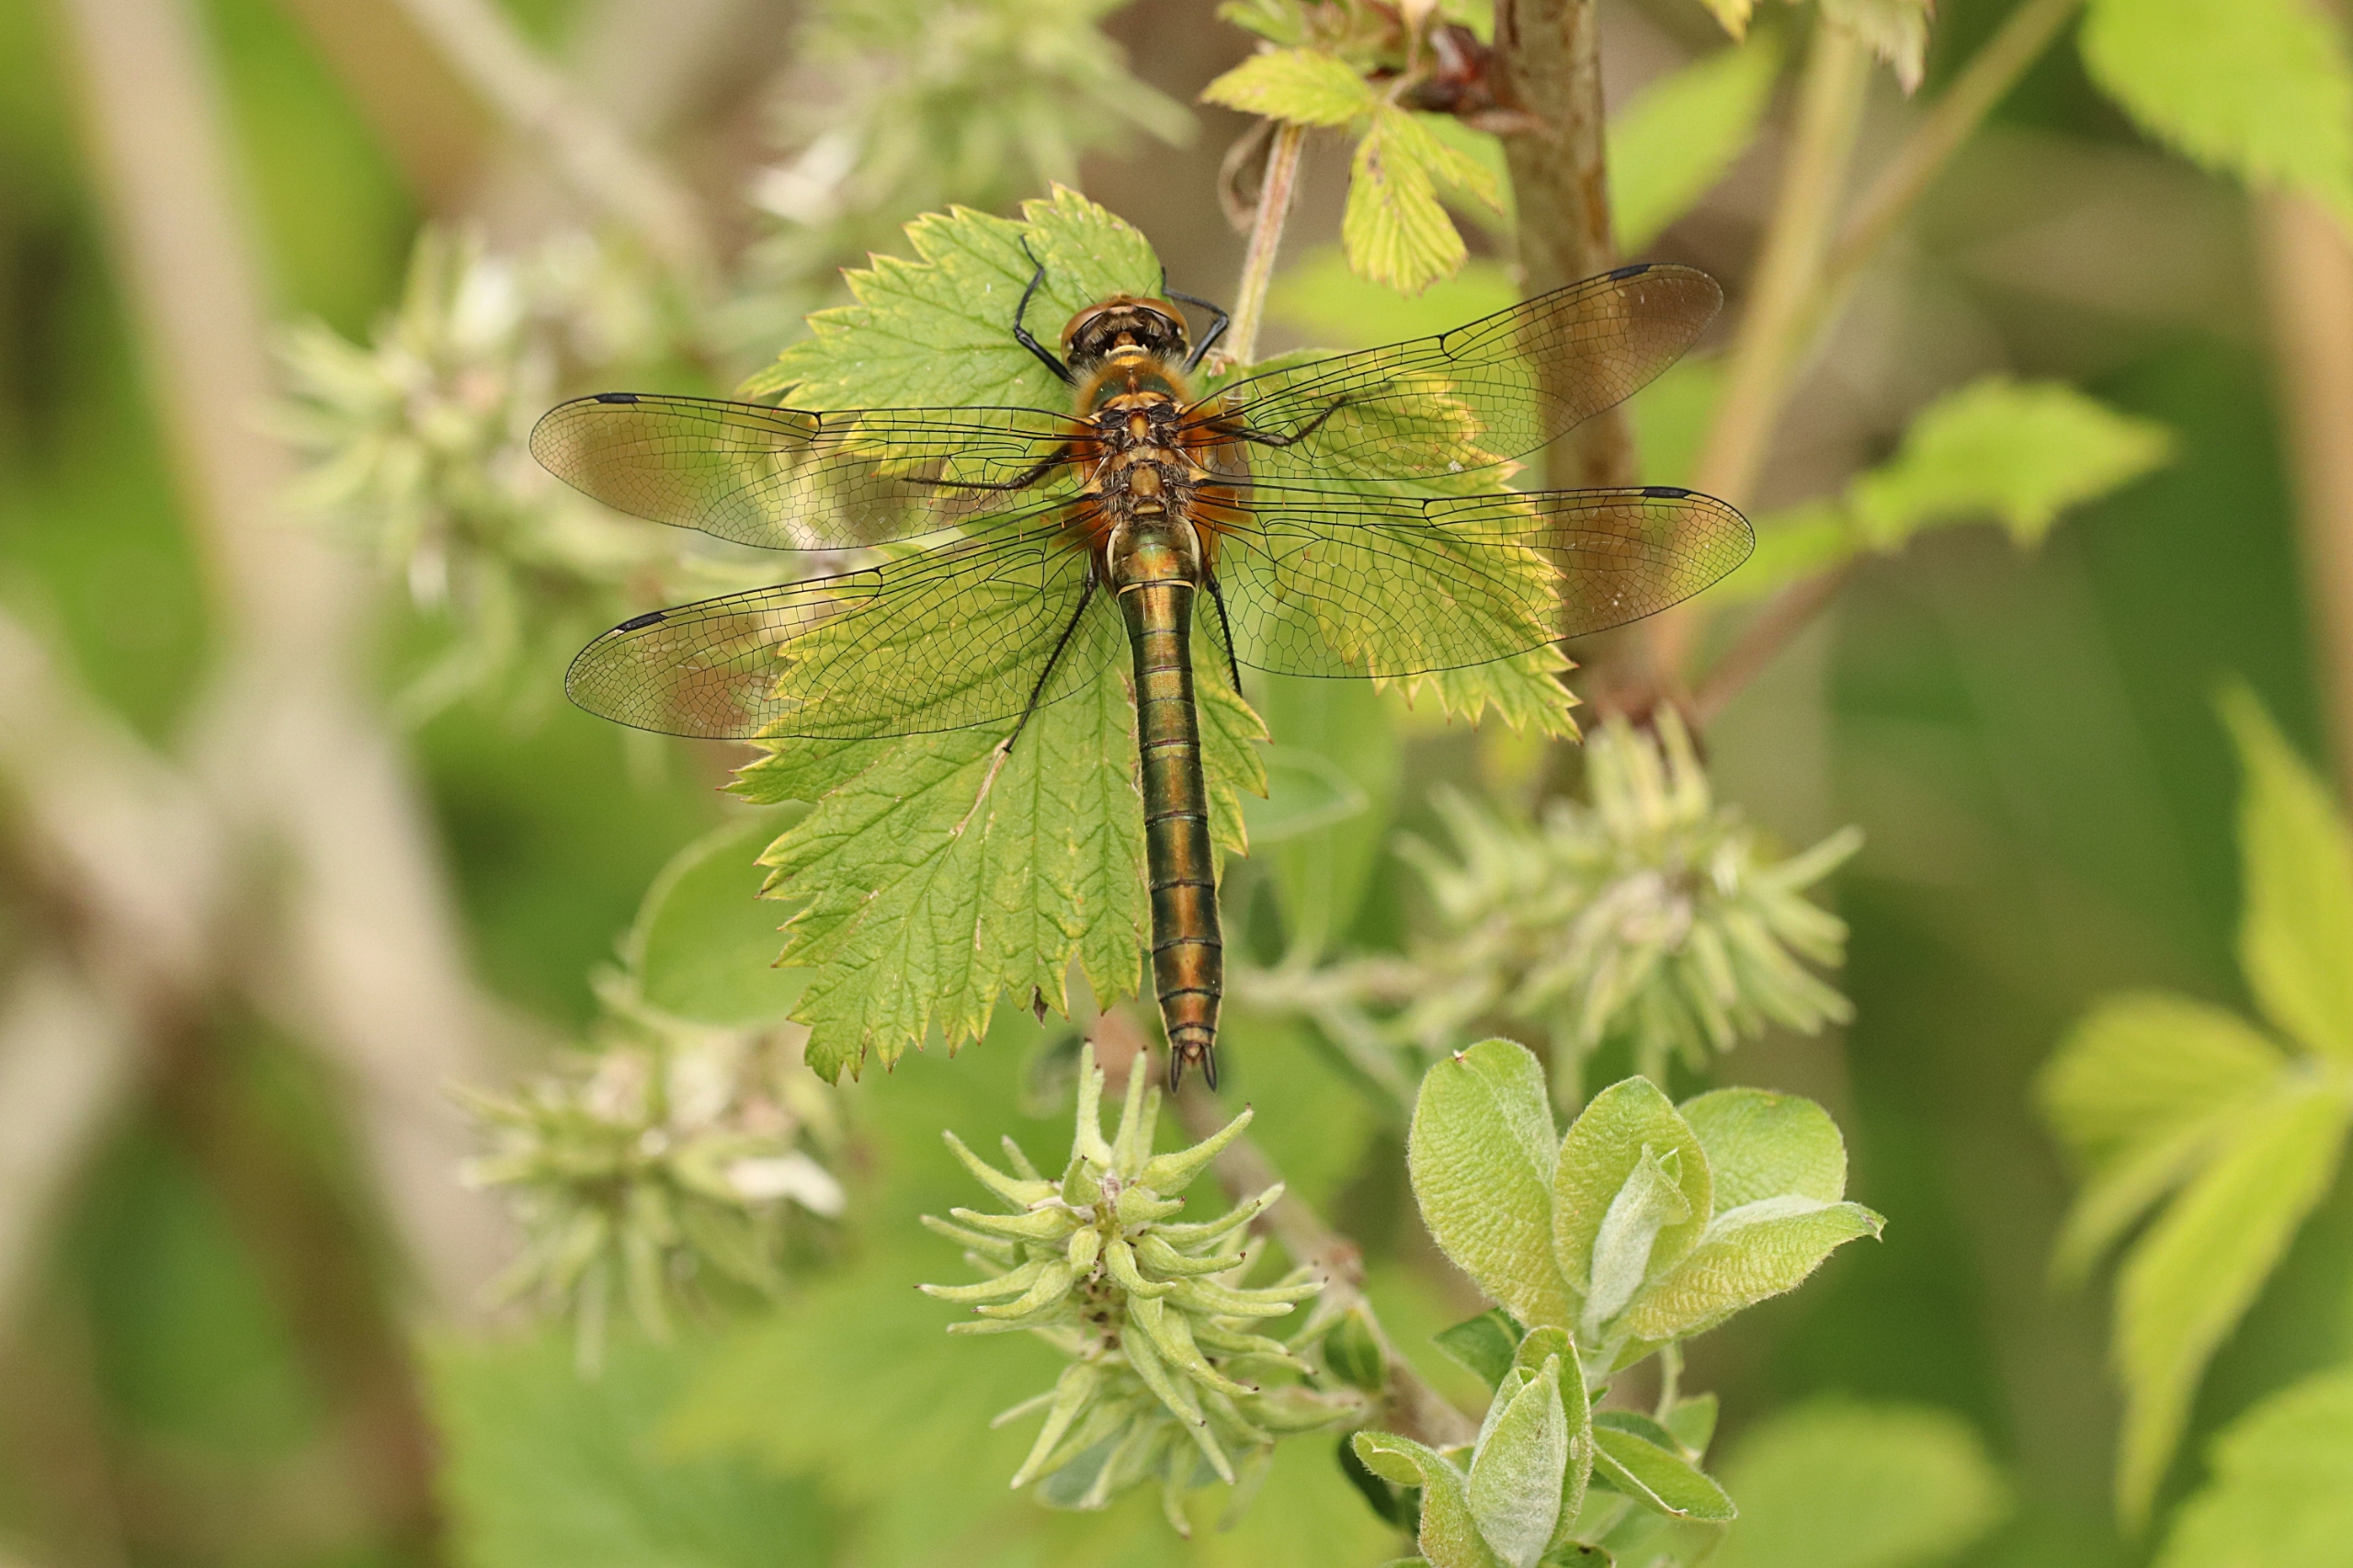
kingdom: Animalia
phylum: Arthropoda
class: Insecta
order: Odonata
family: Corduliidae
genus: Cordulia
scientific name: Cordulia aenea
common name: Grøn smaragdlibel
